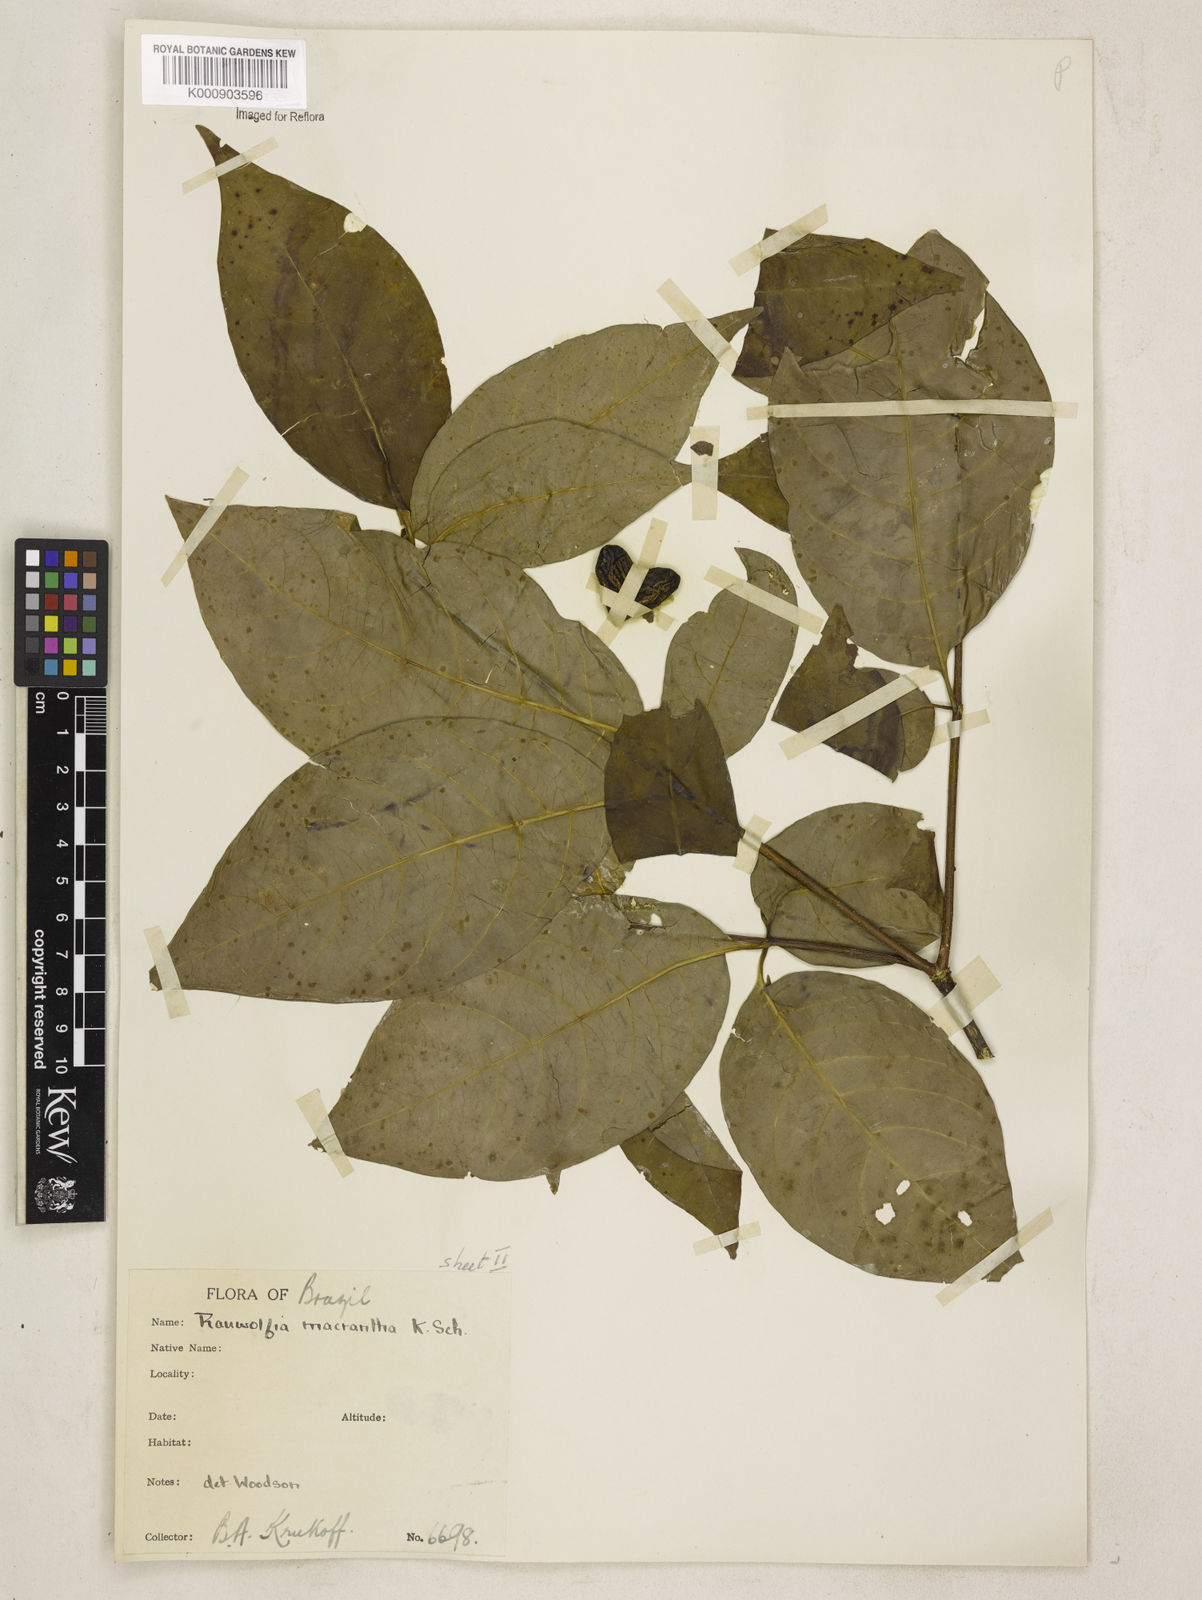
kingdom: Plantae
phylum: Tracheophyta
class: Magnoliopsida
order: Gentianales
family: Apocynaceae
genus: Rauvolfia
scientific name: Rauvolfia macrantha
